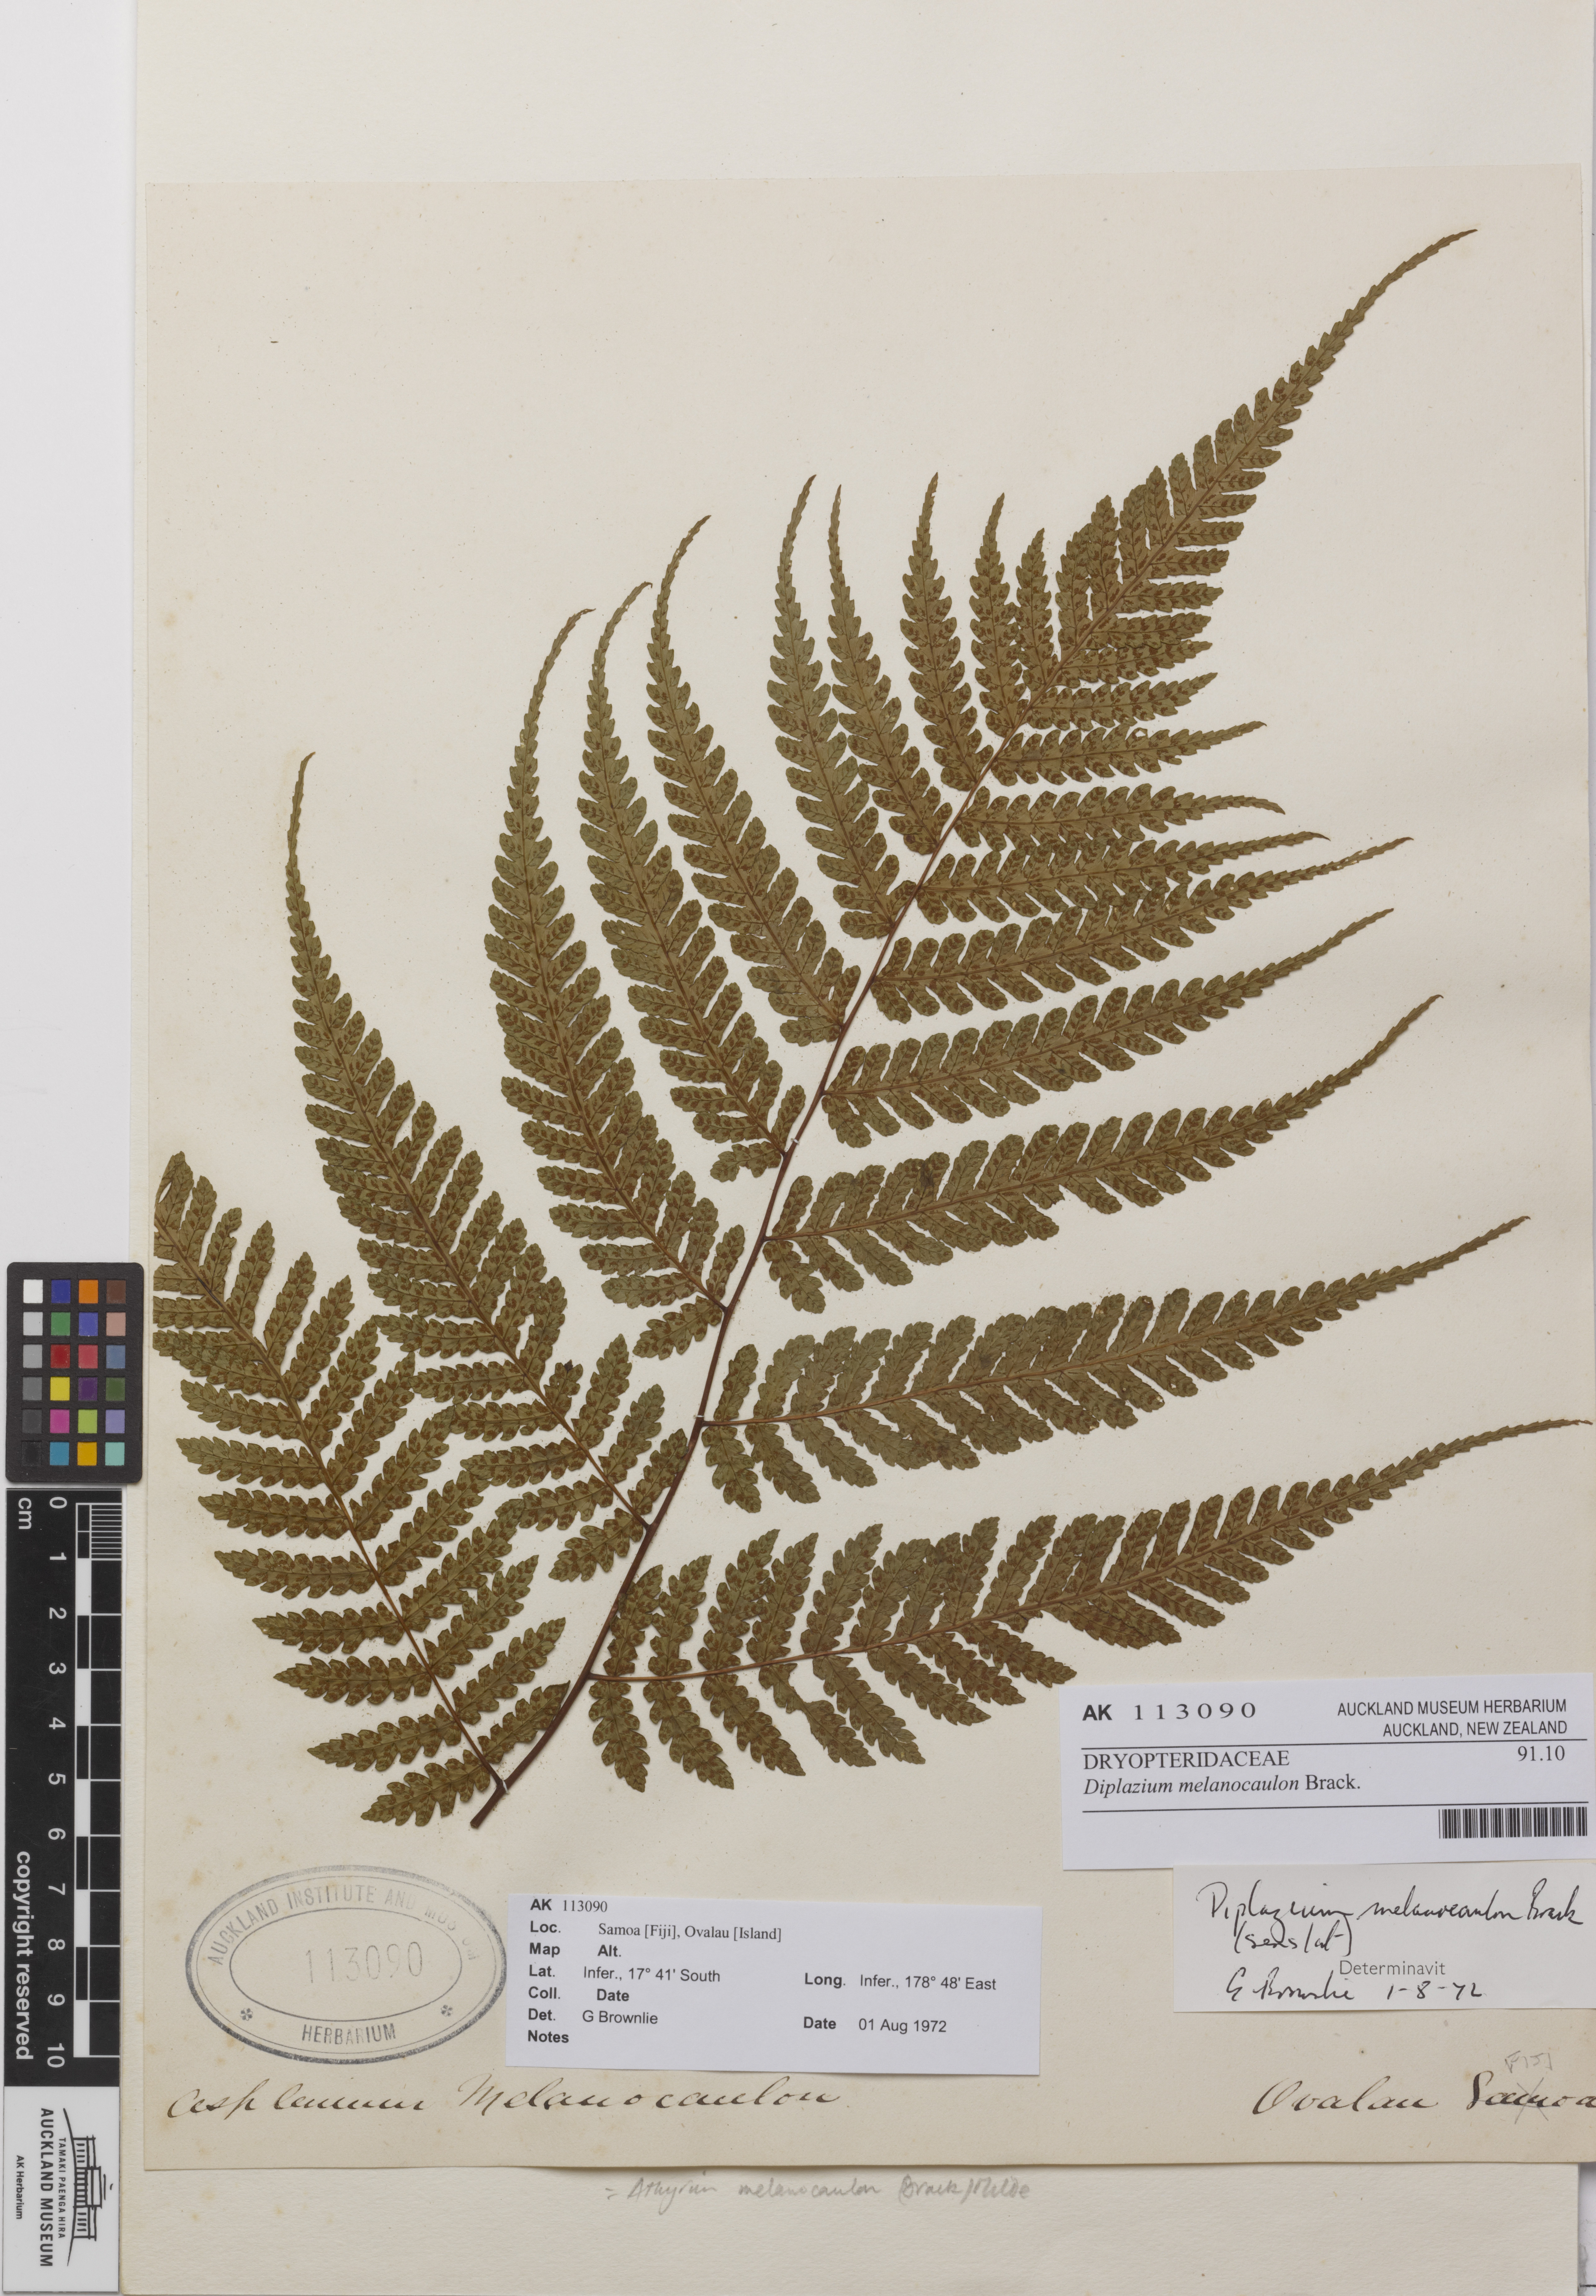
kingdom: Plantae
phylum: Tracheophyta
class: Polypodiopsida
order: Polypodiales
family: Athyriaceae
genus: Diplazium
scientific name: Diplazium melanocaulon
